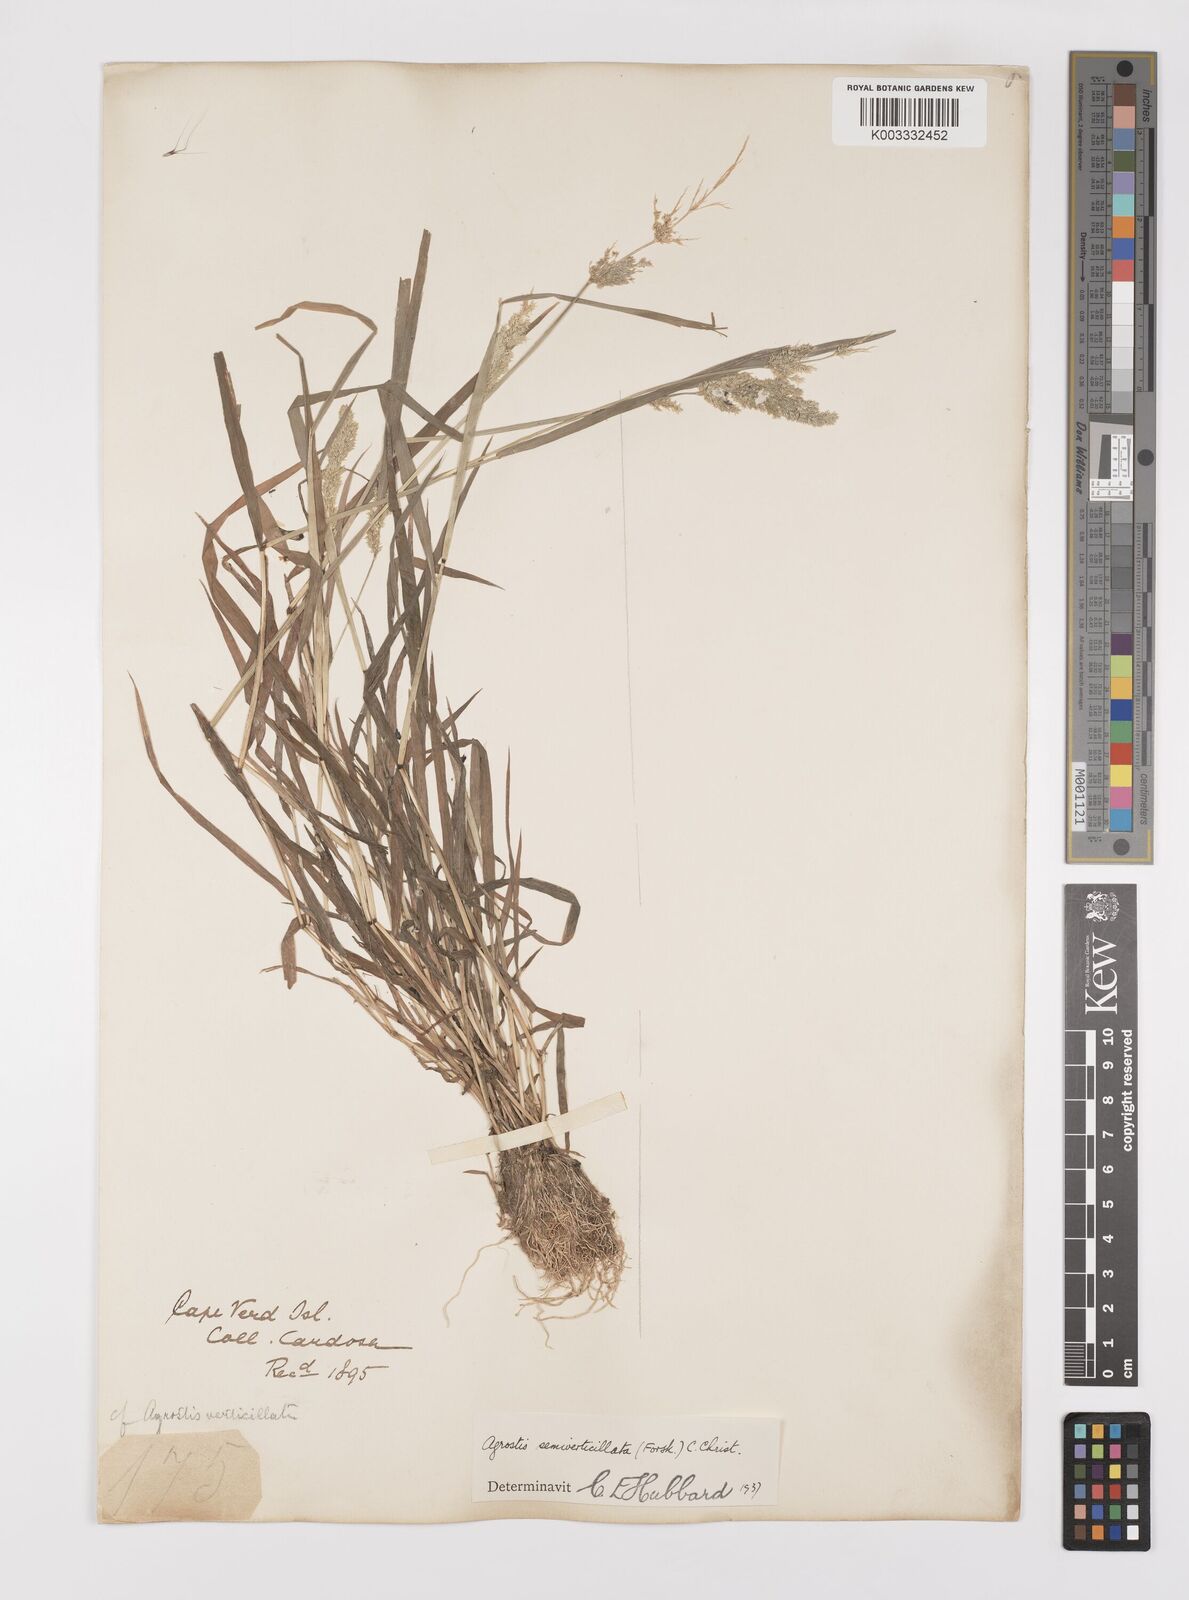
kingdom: Plantae
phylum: Tracheophyta
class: Liliopsida
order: Poales
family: Poaceae
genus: Polypogon
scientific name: Polypogon viridis
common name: Water bent
